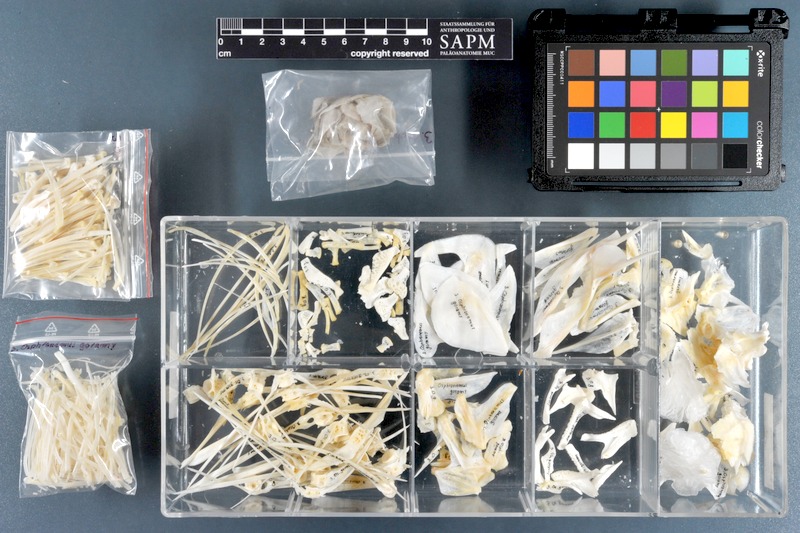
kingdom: Animalia
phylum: Chordata
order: Perciformes
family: Osphronemidae
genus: Osphronemus
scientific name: Osphronemus goramy
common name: Giant gourami
